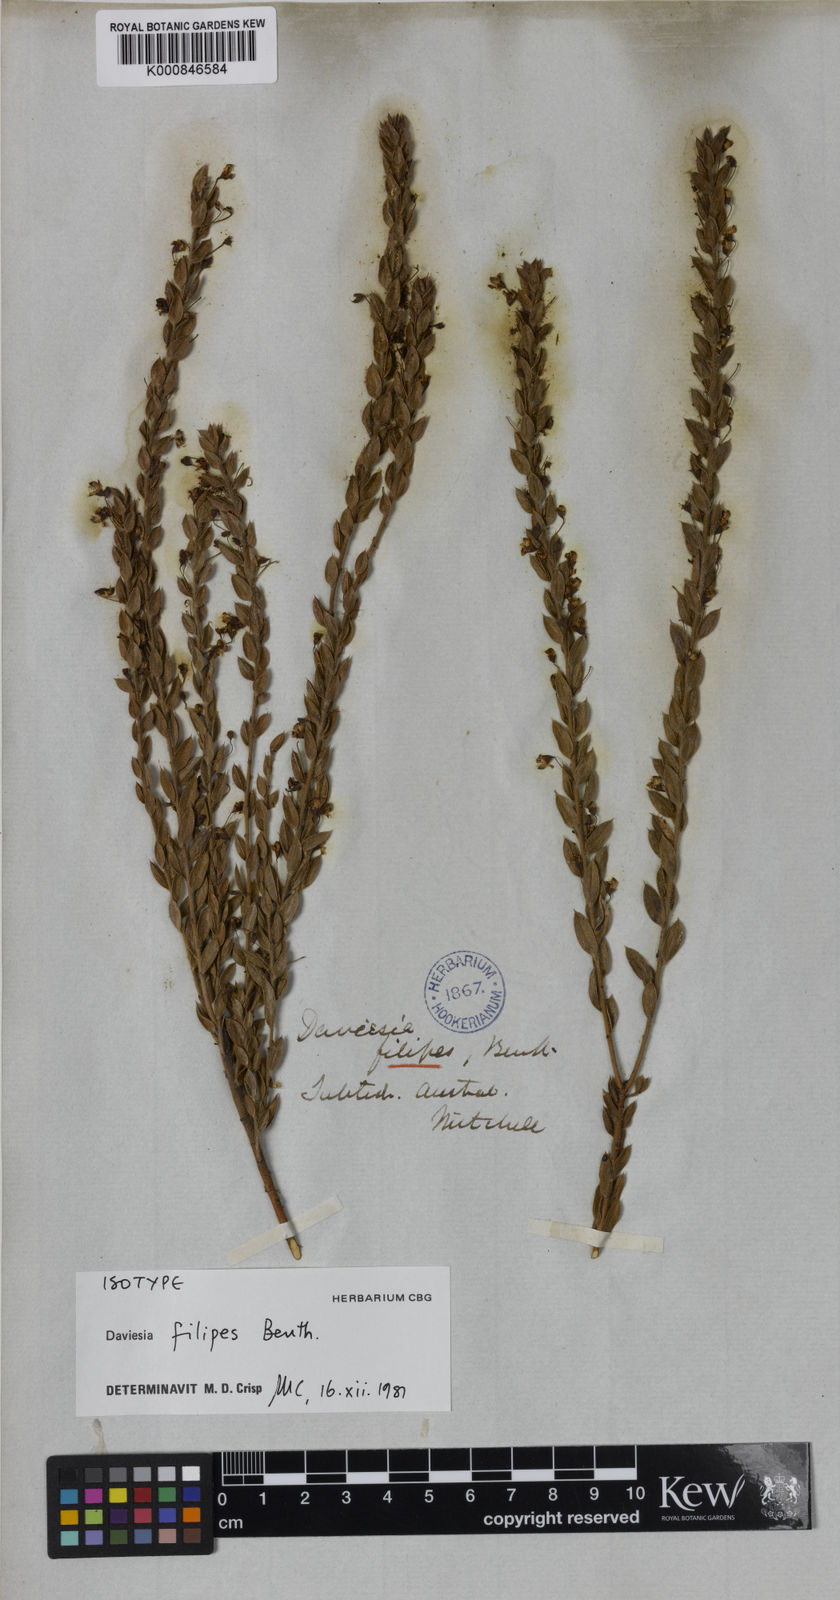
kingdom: Plantae
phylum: Tracheophyta
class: Magnoliopsida
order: Fabales
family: Fabaceae
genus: Daviesia
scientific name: Daviesia filipes
